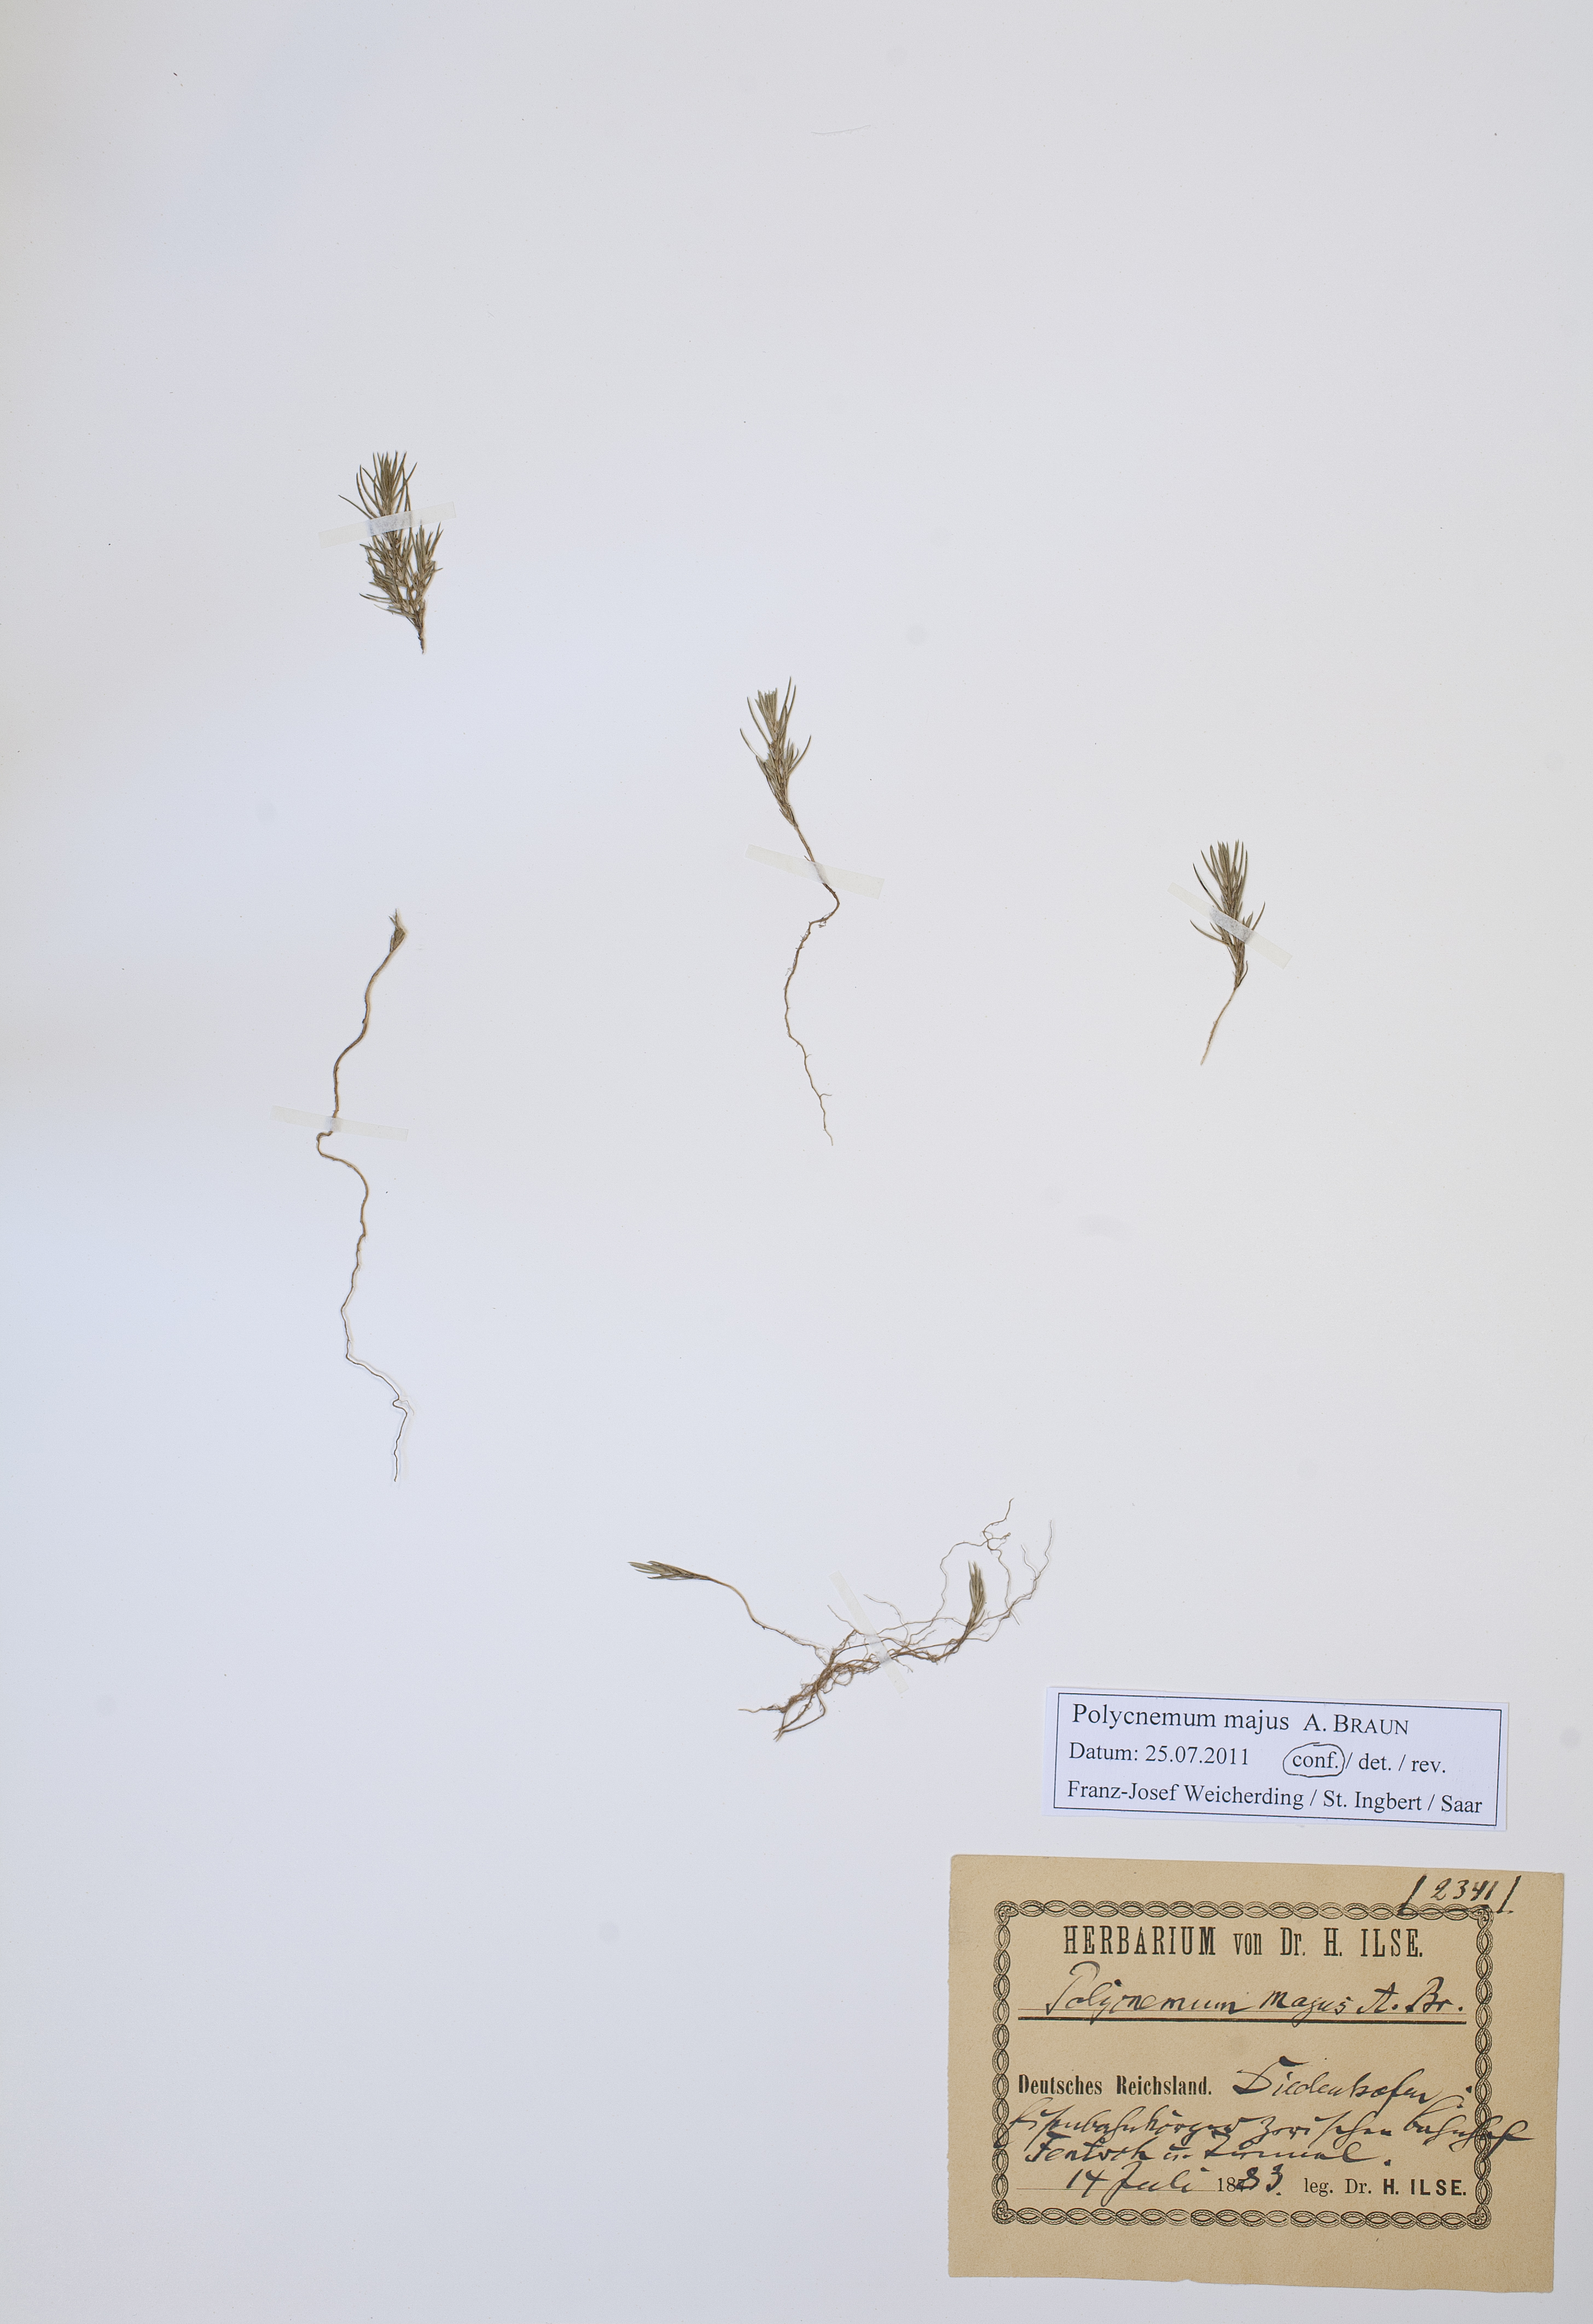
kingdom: Plantae
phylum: Tracheophyta
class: Magnoliopsida
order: Caryophyllales
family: Amaranthaceae
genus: Polycnemum
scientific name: Polycnemum majus
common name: Giant needleleaf
